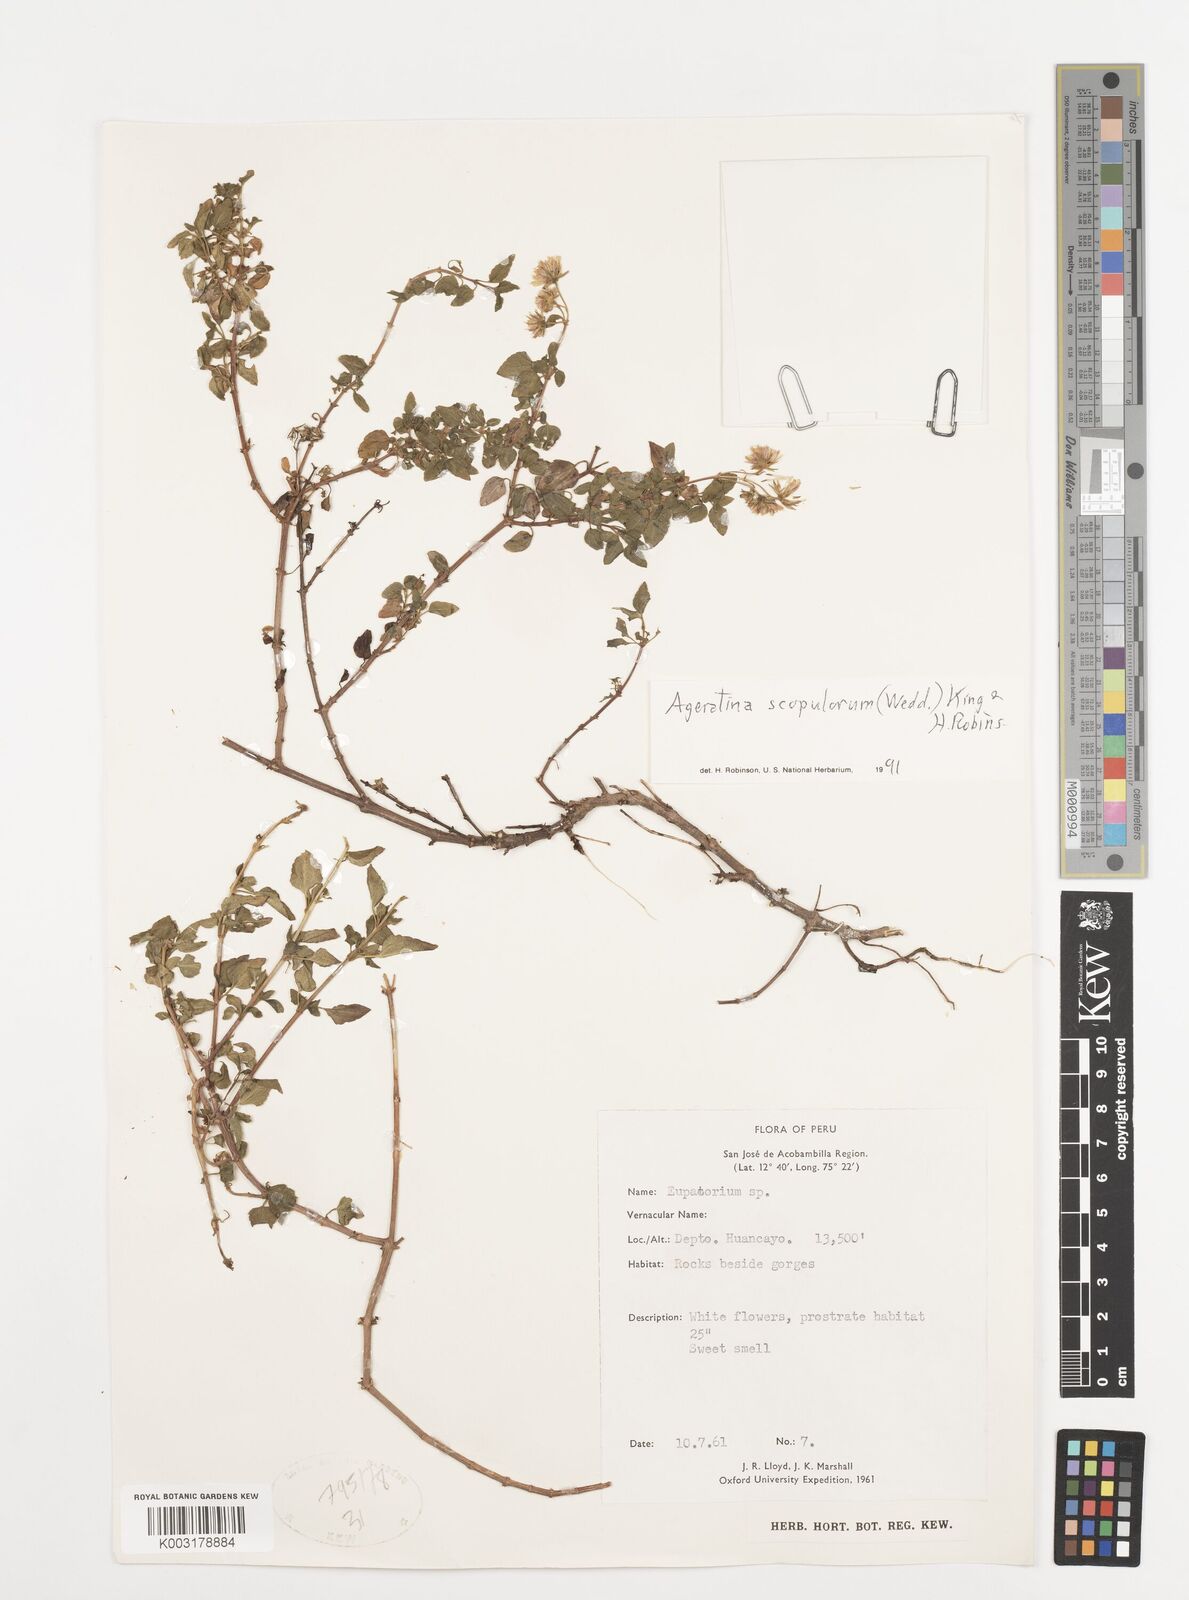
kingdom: Plantae
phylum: Tracheophyta
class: Magnoliopsida
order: Asterales
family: Asteraceae
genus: Ageratina
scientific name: Ageratina scopulorum
